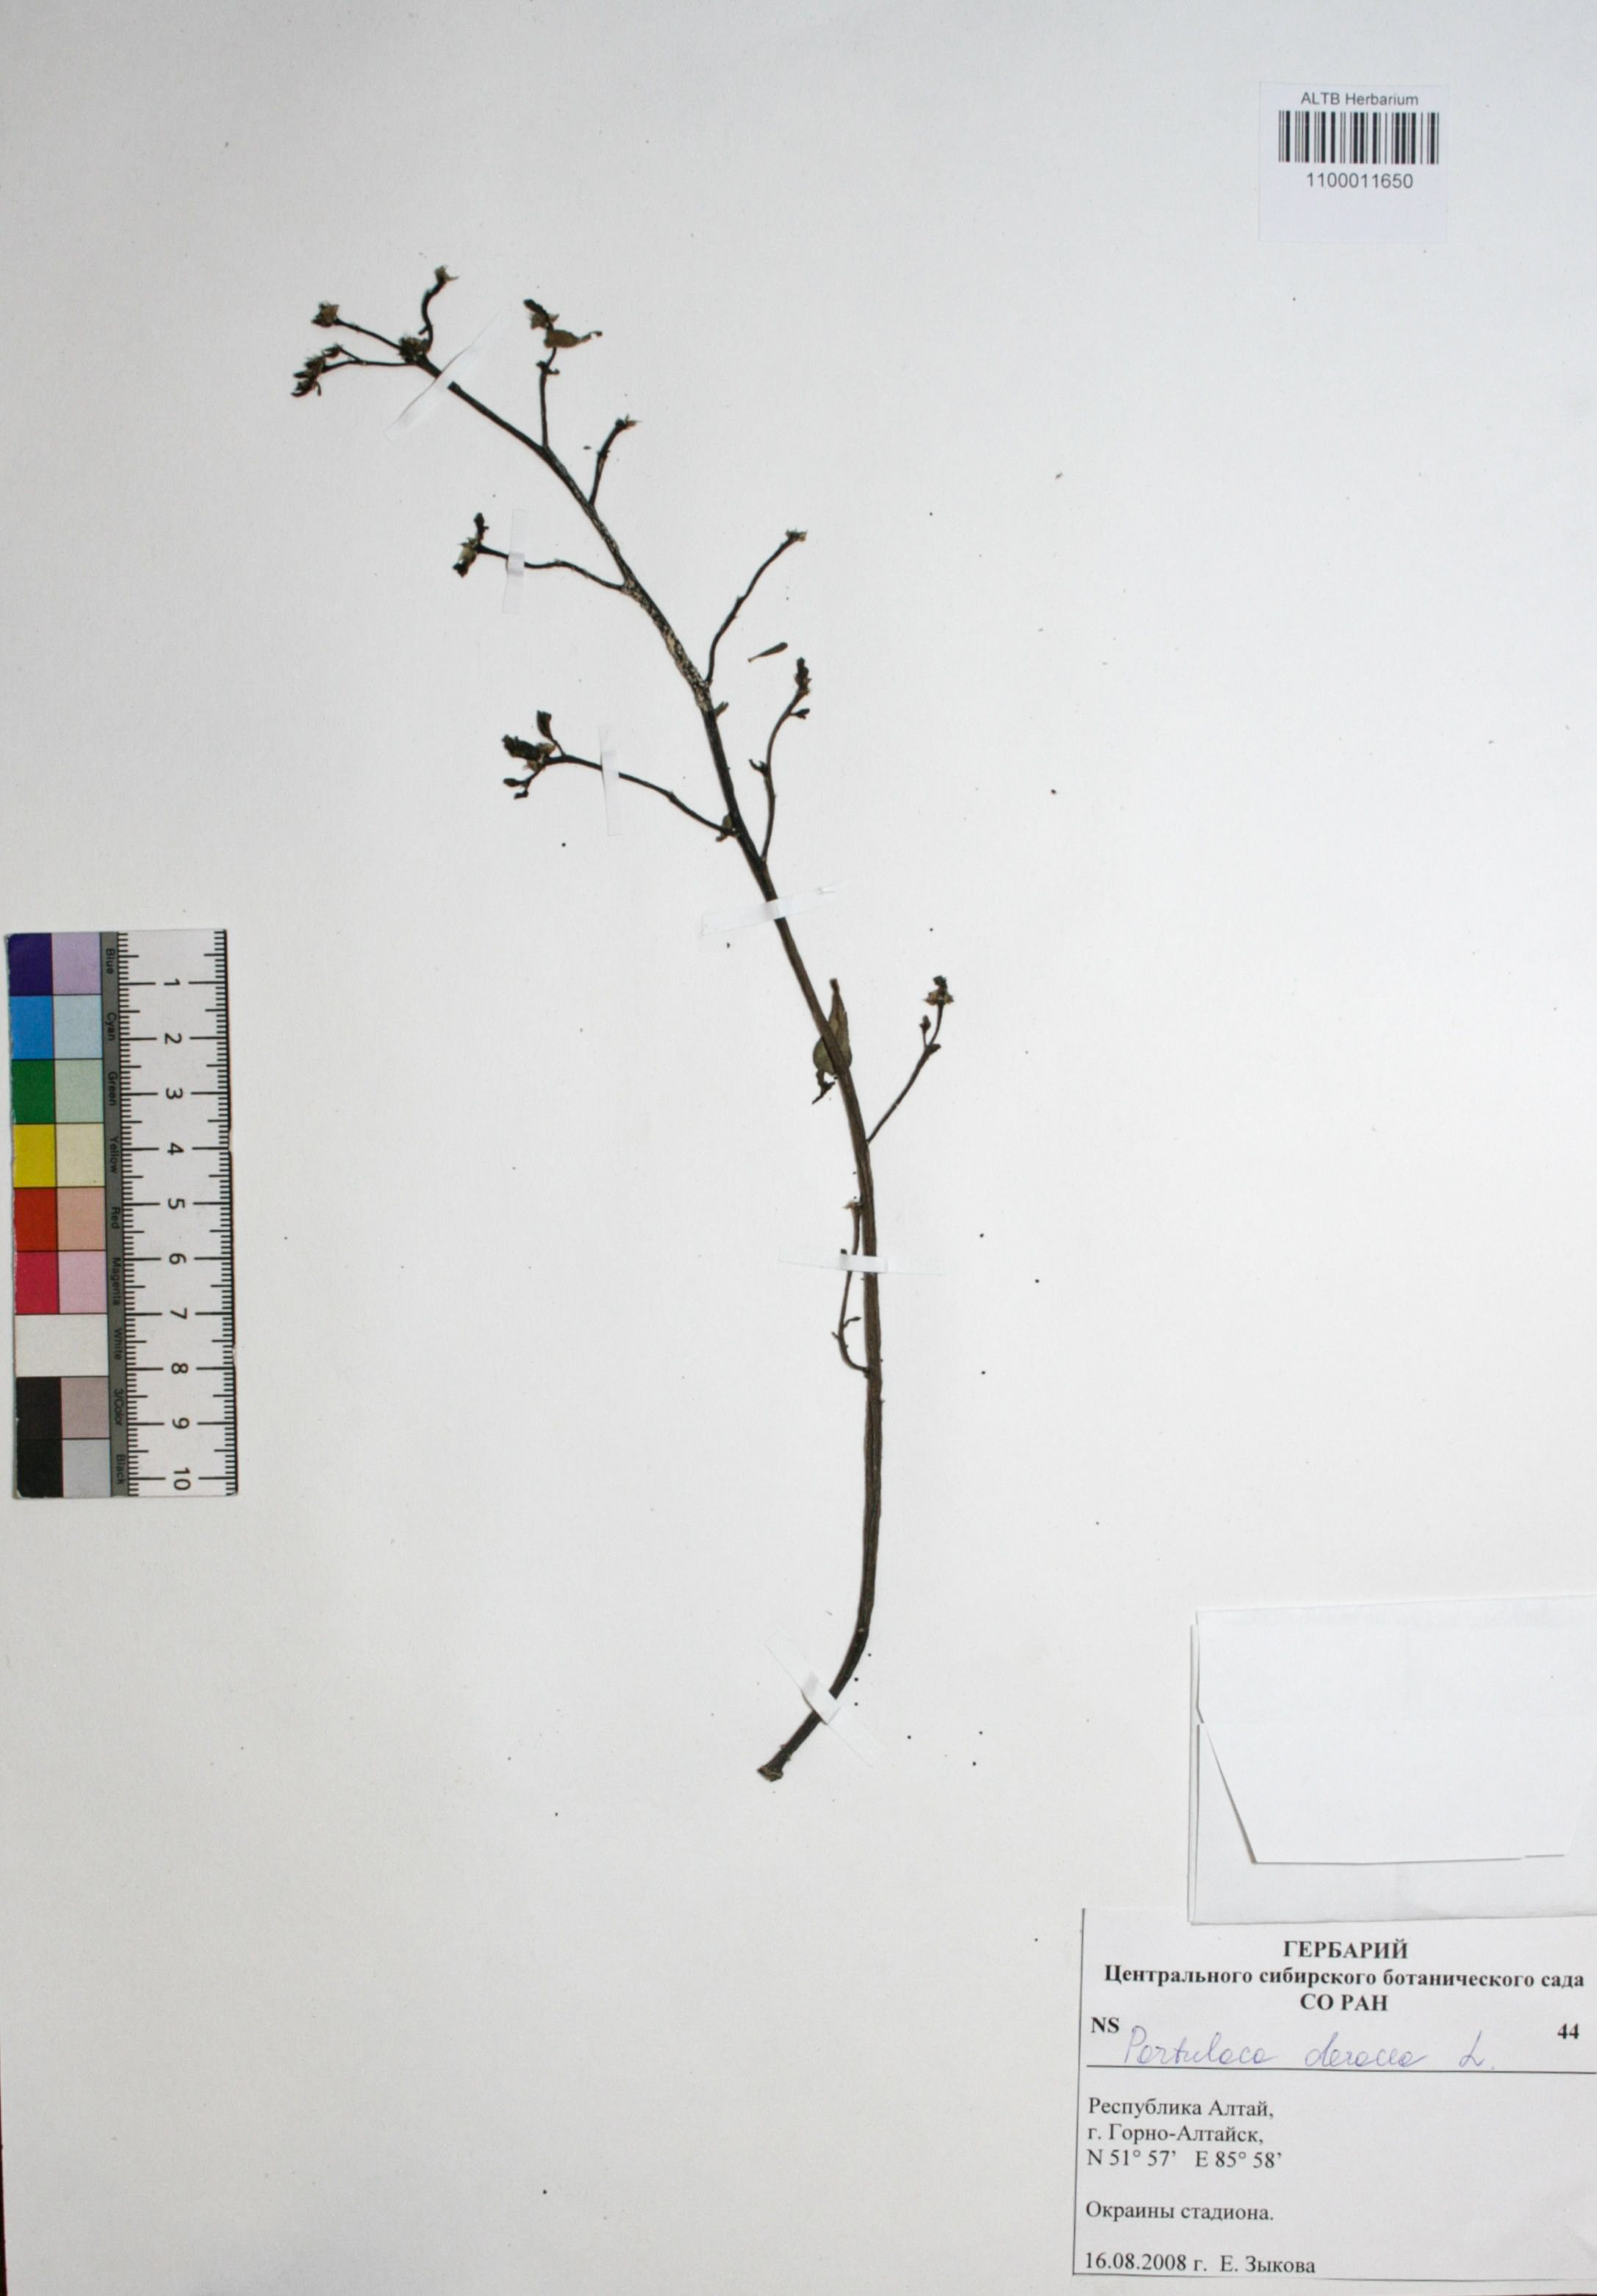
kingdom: Plantae
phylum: Tracheophyta
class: Magnoliopsida
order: Caryophyllales
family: Portulacaceae
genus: Portulaca
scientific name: Portulaca oleracea
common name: Common purslane
